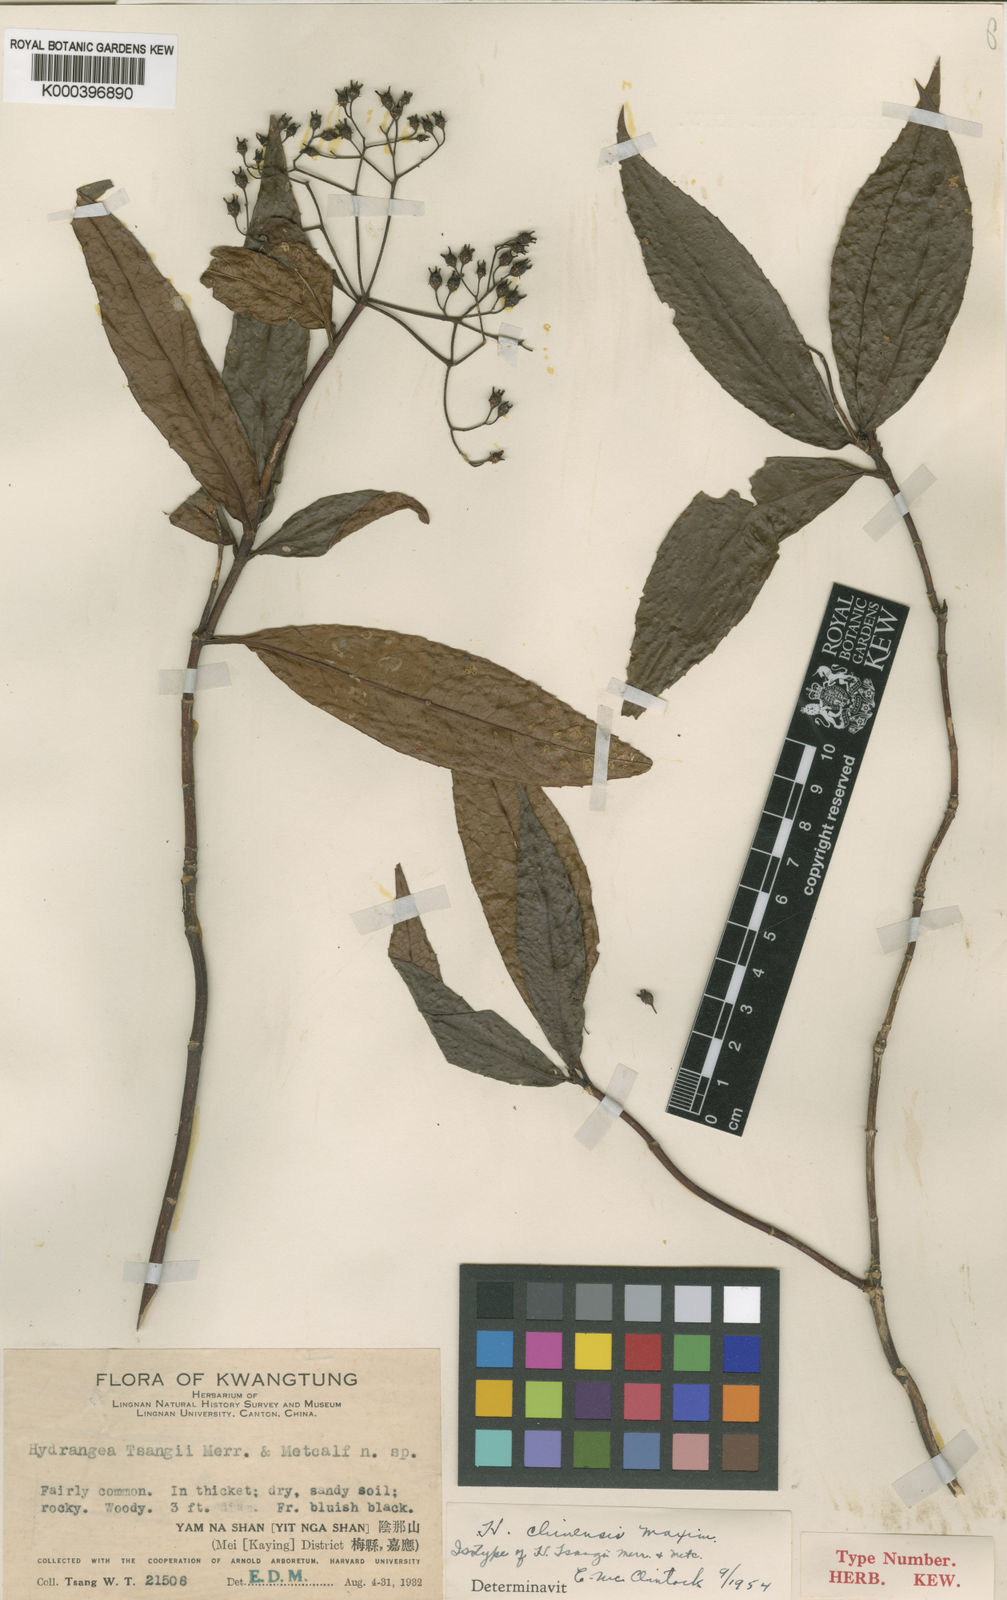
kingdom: Plantae
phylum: Tracheophyta
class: Magnoliopsida
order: Cornales
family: Hydrangeaceae
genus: Hydrangea
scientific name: Hydrangea chinensis
